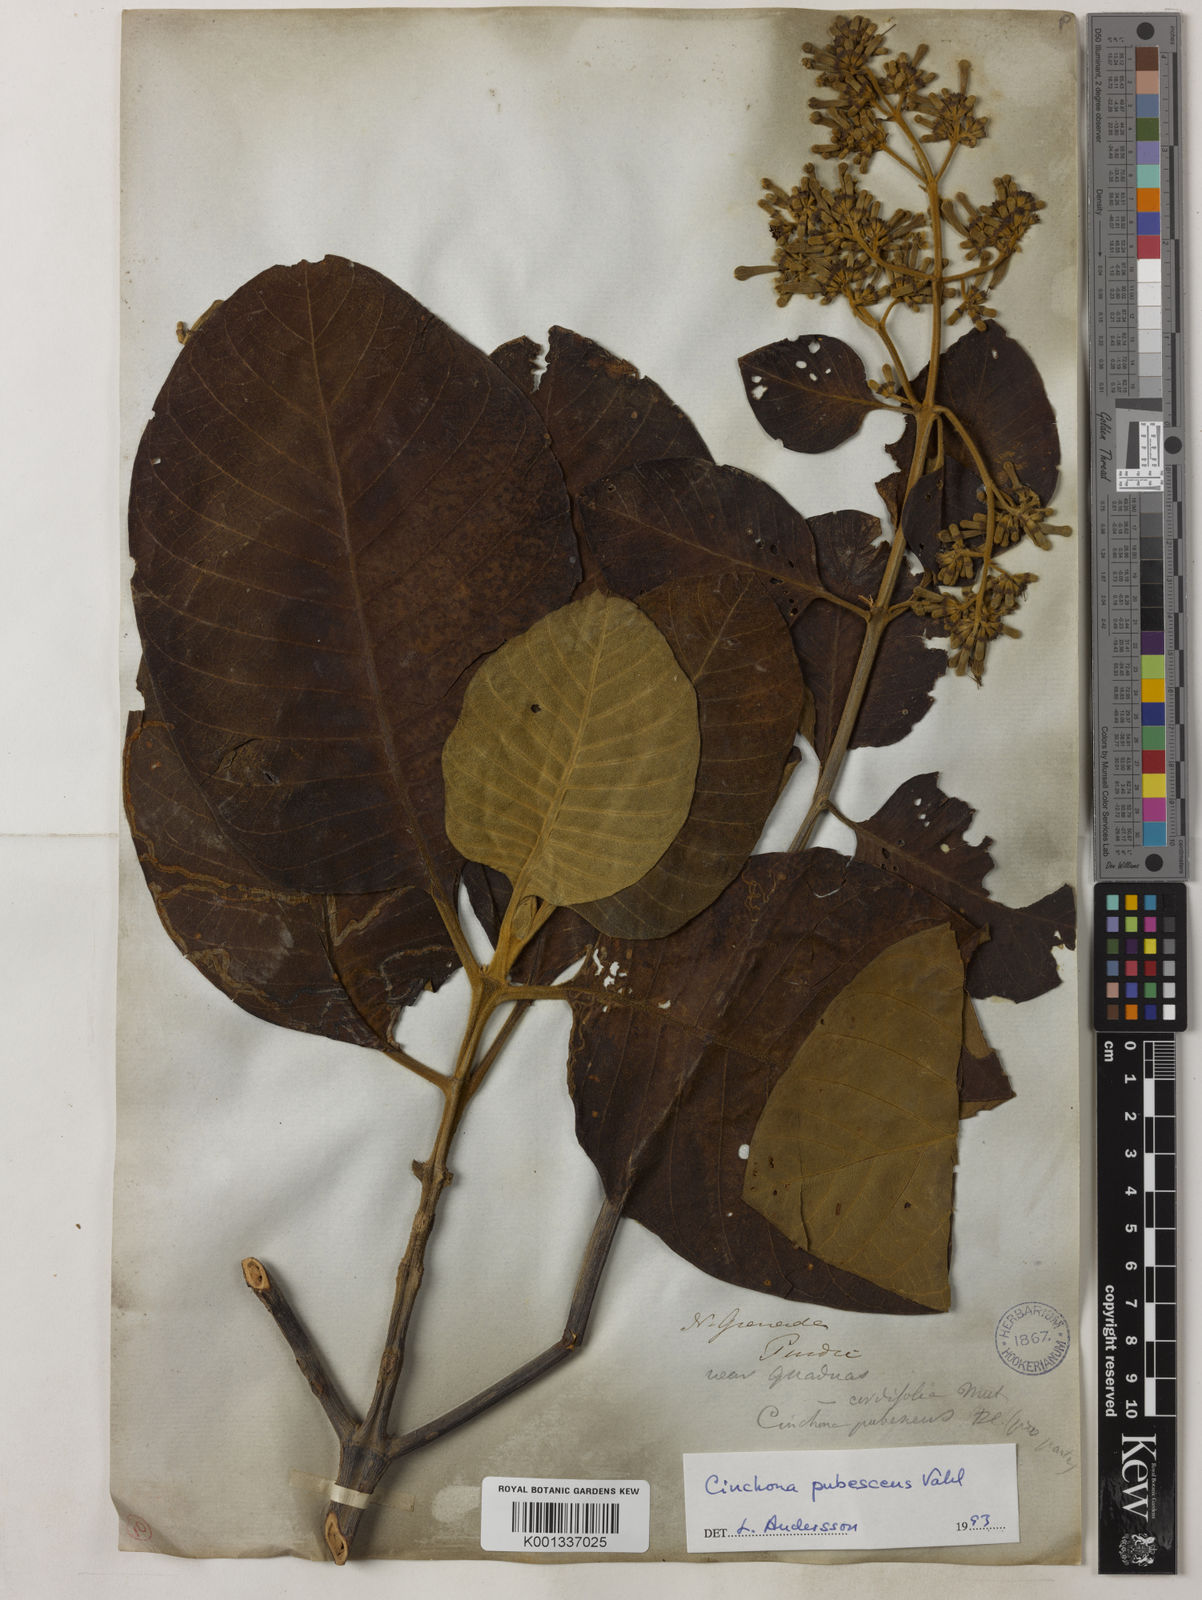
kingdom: Plantae
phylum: Tracheophyta
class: Magnoliopsida
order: Gentianales
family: Rubiaceae
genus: Cinchona
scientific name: Cinchona pubescens
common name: Quinine
